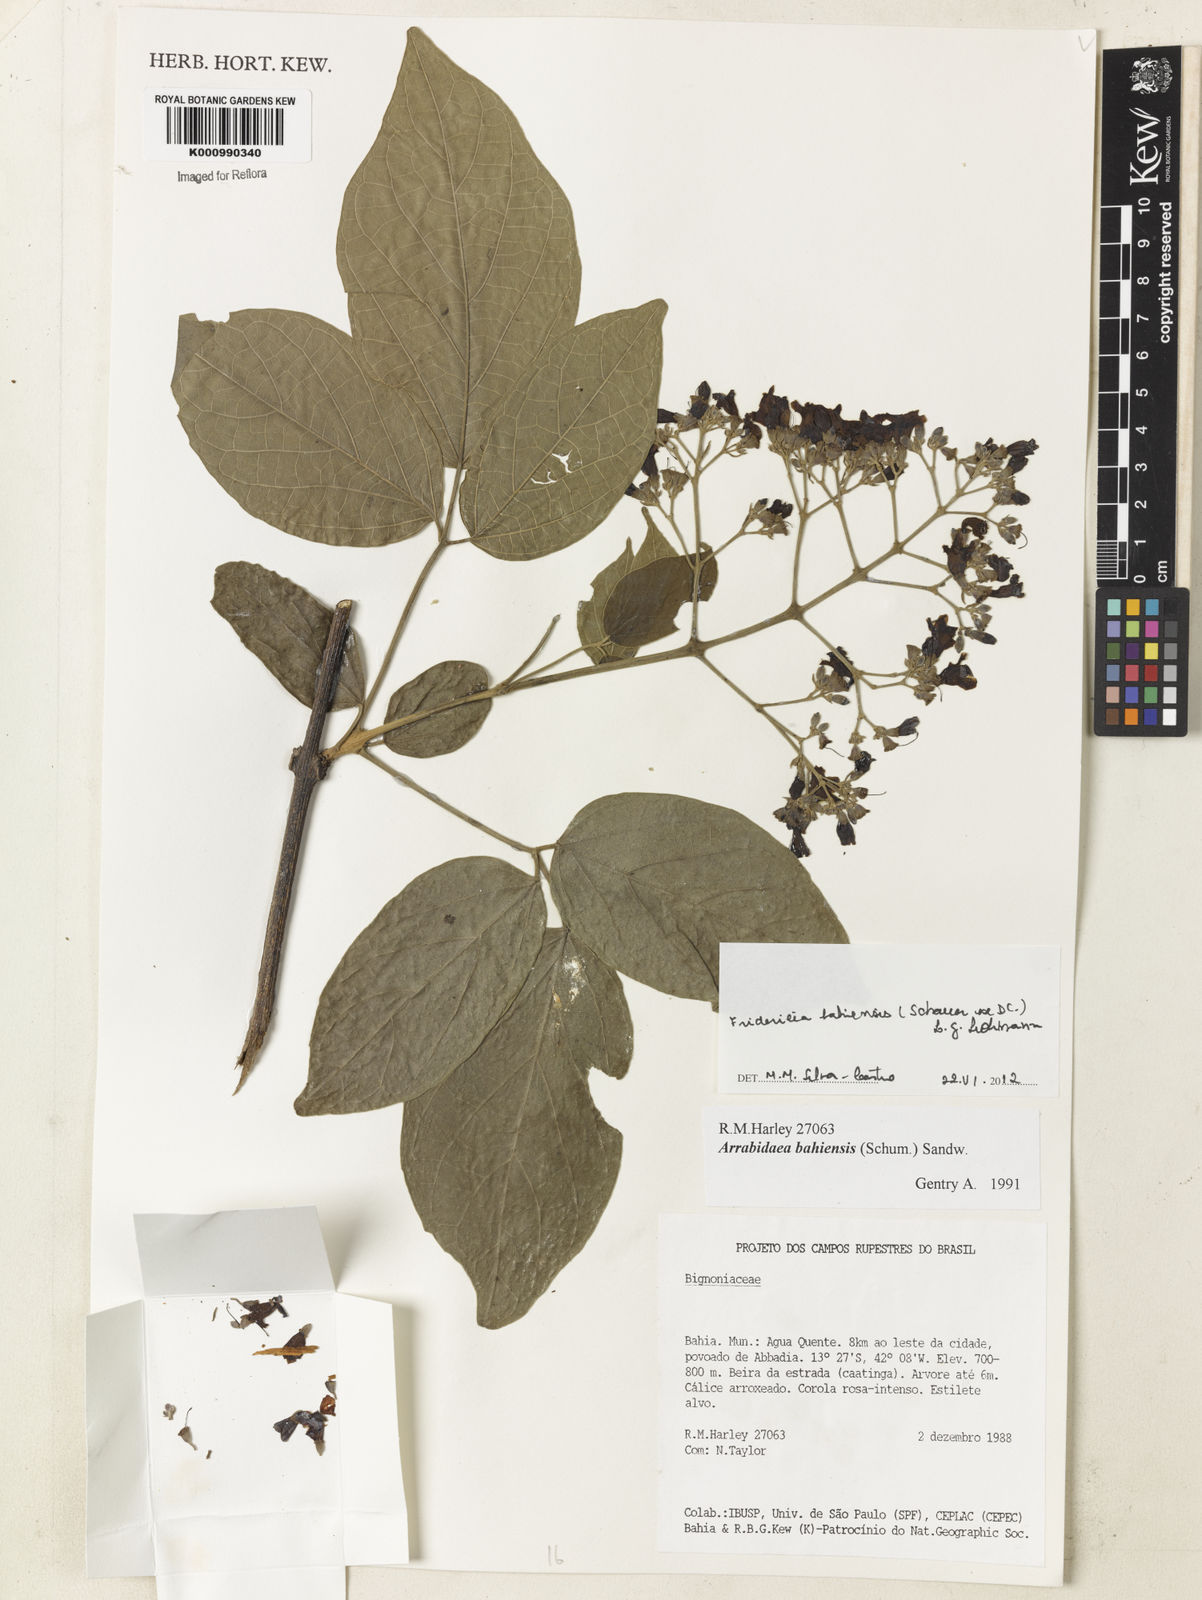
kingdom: Plantae
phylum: Tracheophyta
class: Magnoliopsida
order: Lamiales
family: Bignoniaceae
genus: Fridericia
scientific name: Fridericia bahiensis
